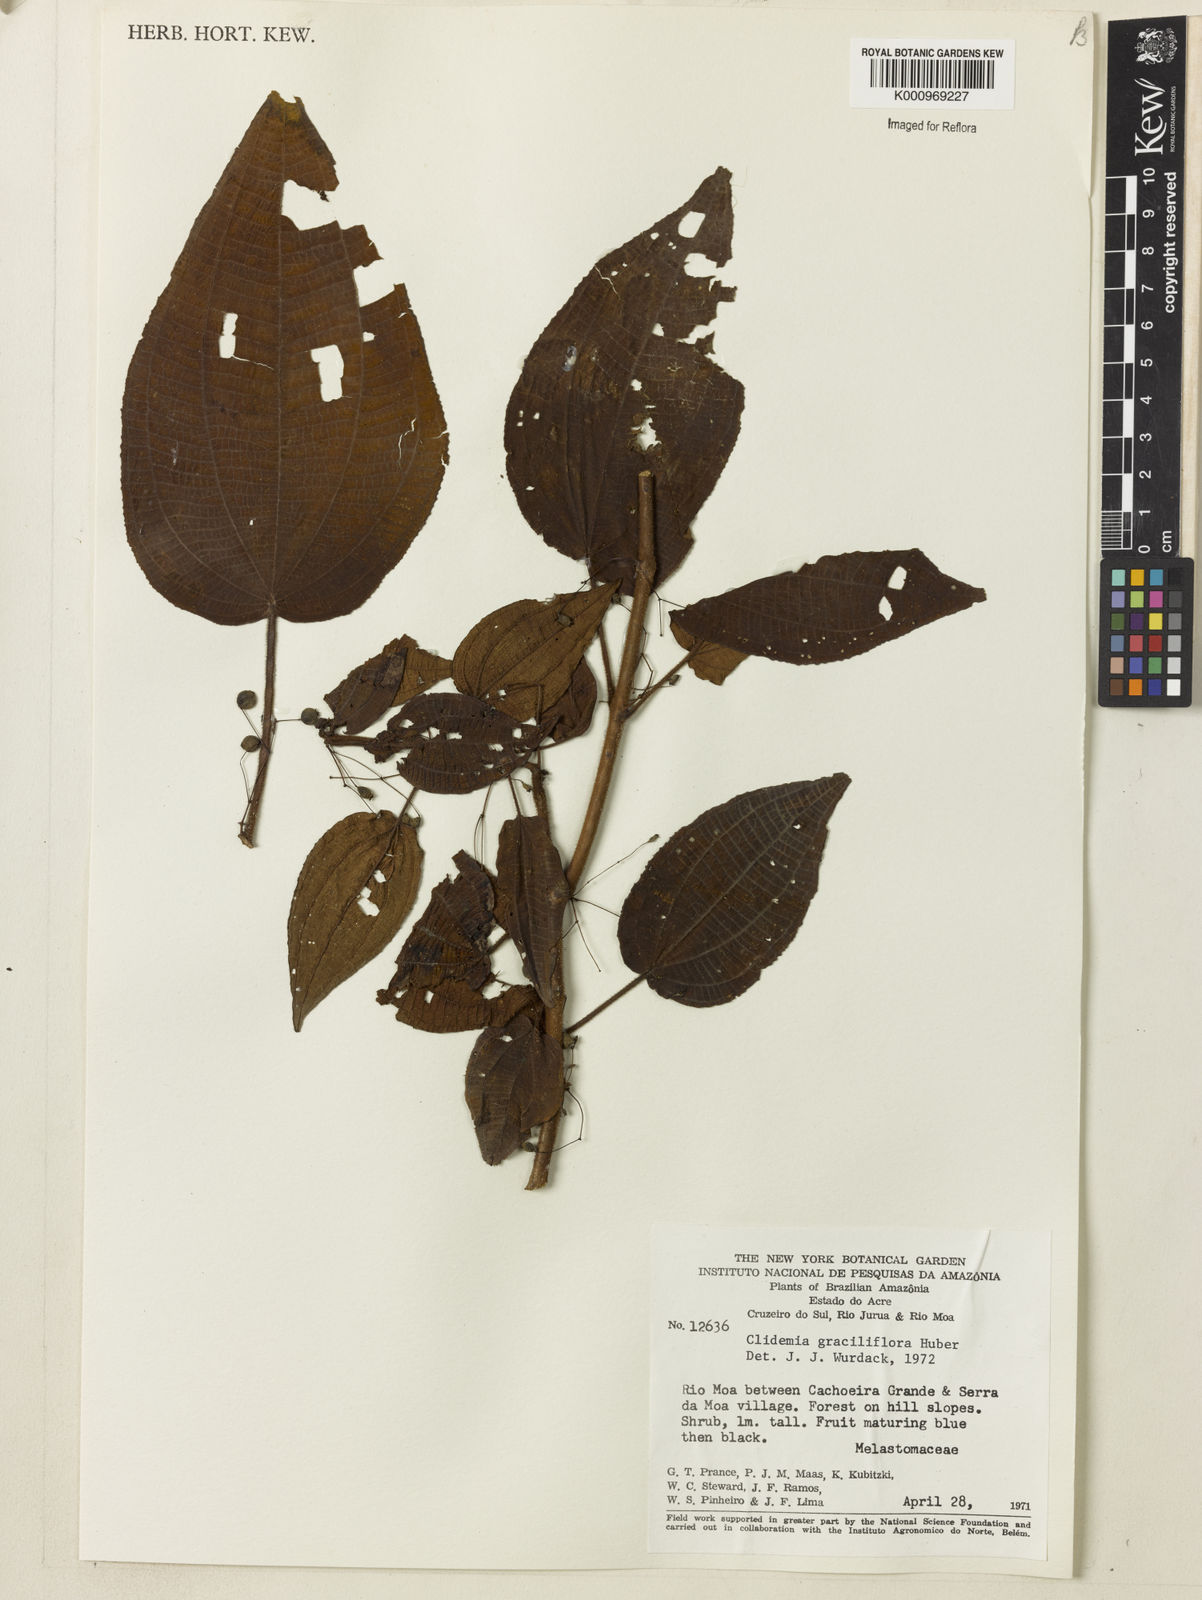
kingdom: Plantae
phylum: Tracheophyta
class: Magnoliopsida
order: Myrtales
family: Melastomataceae
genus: Miconia
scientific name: Miconia graciliflora
